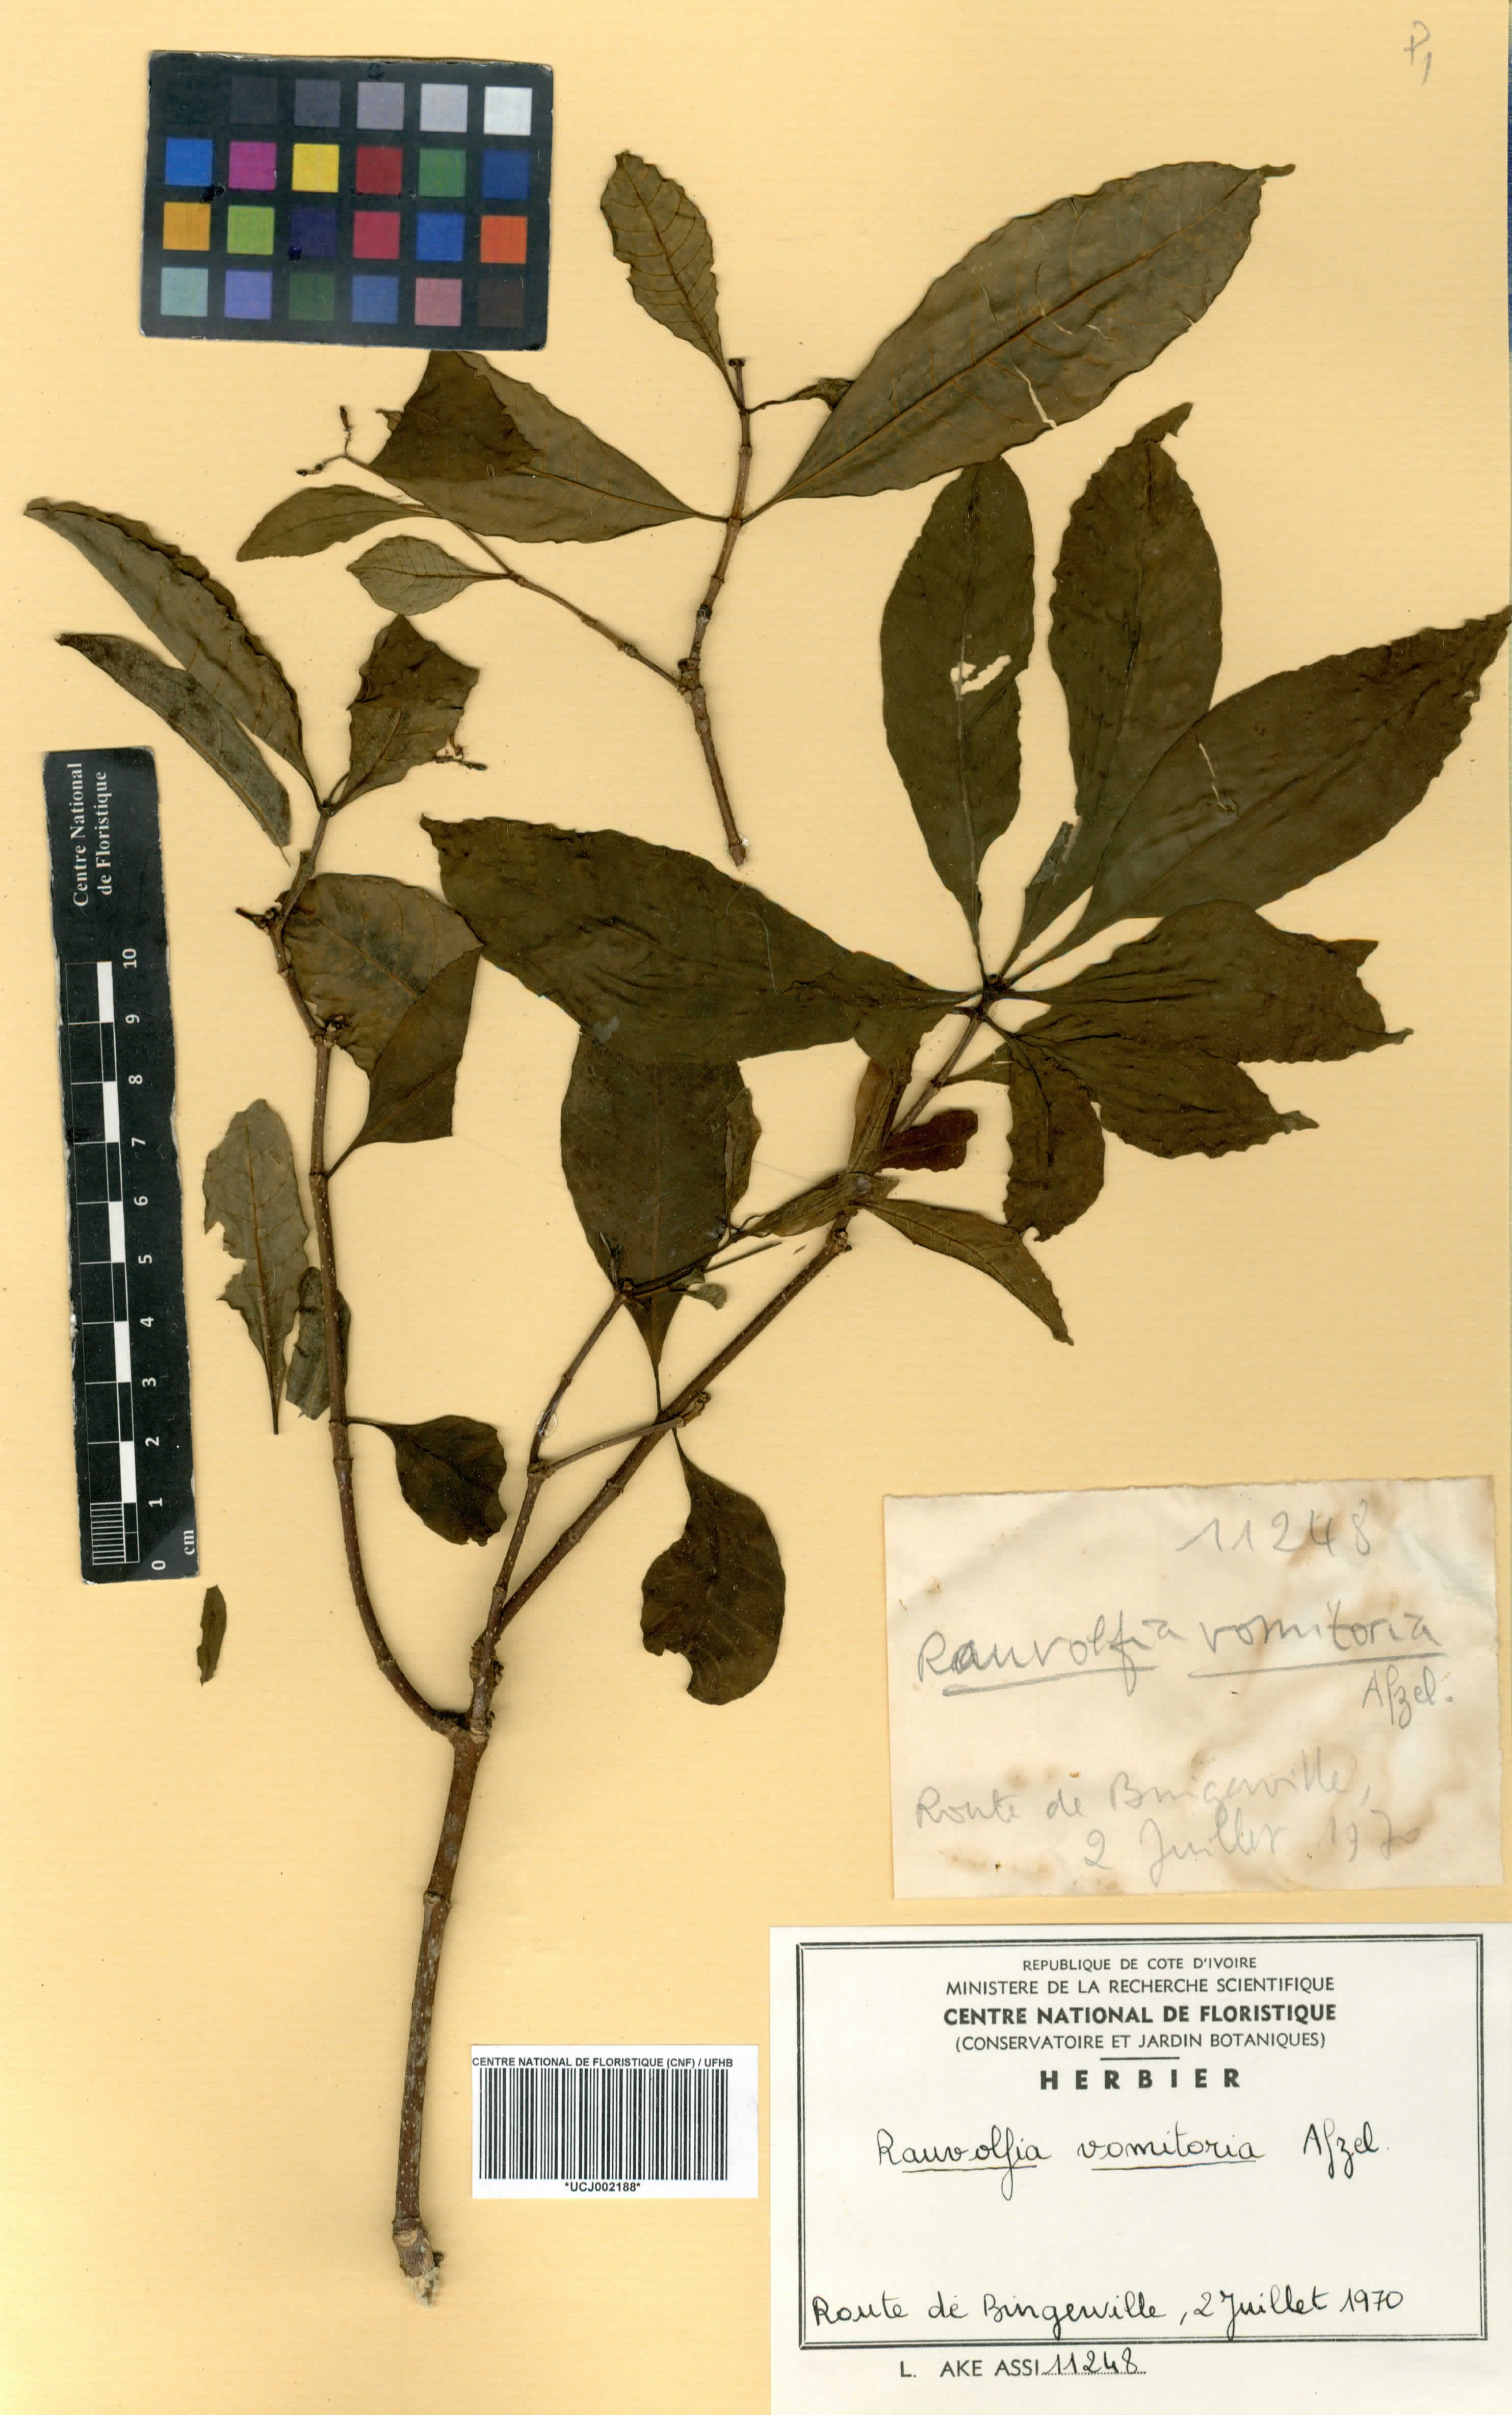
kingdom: Plantae
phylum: Tracheophyta
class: Magnoliopsida
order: Gentianales
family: Apocynaceae
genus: Rauvolfia
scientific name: Rauvolfia vomitoria
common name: Poison devil's-pepper
